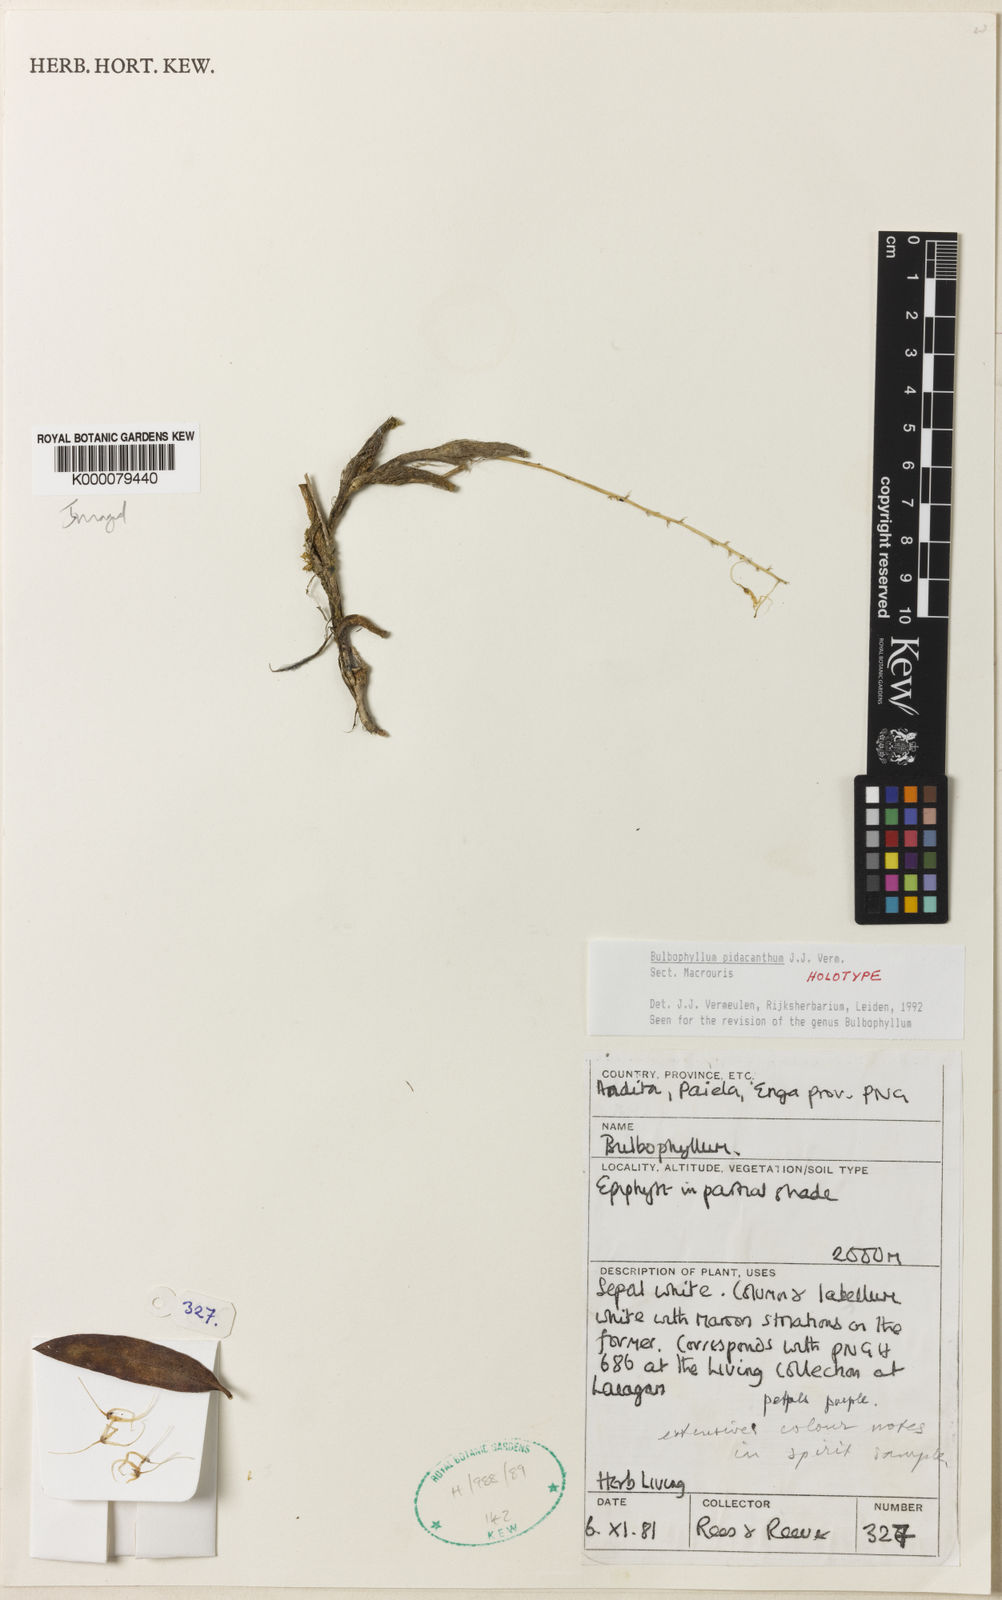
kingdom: Plantae
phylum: Tracheophyta
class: Liliopsida
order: Asparagales
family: Orchidaceae
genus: Bulbophyllum
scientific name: Bulbophyllum
